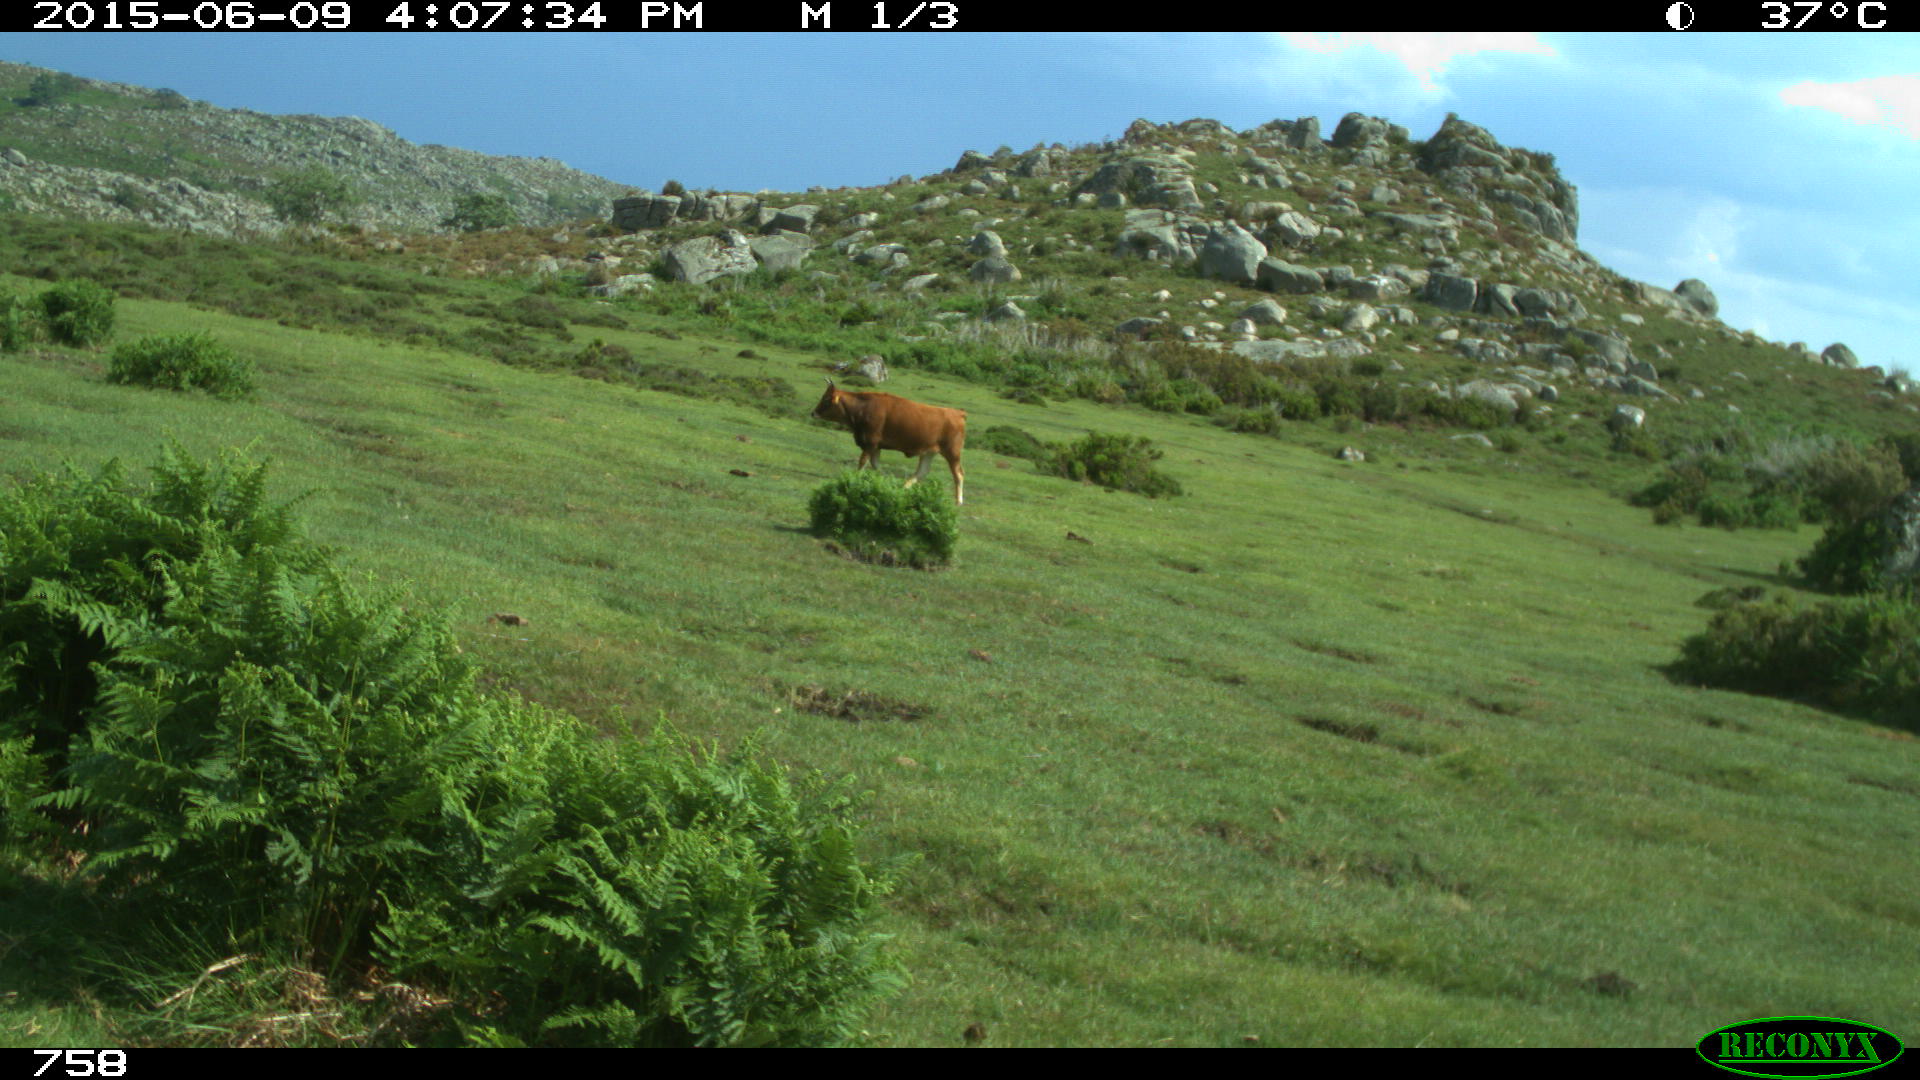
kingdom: Animalia
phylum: Chordata
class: Mammalia
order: Artiodactyla
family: Bovidae
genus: Bos
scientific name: Bos taurus
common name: Domesticated cattle
